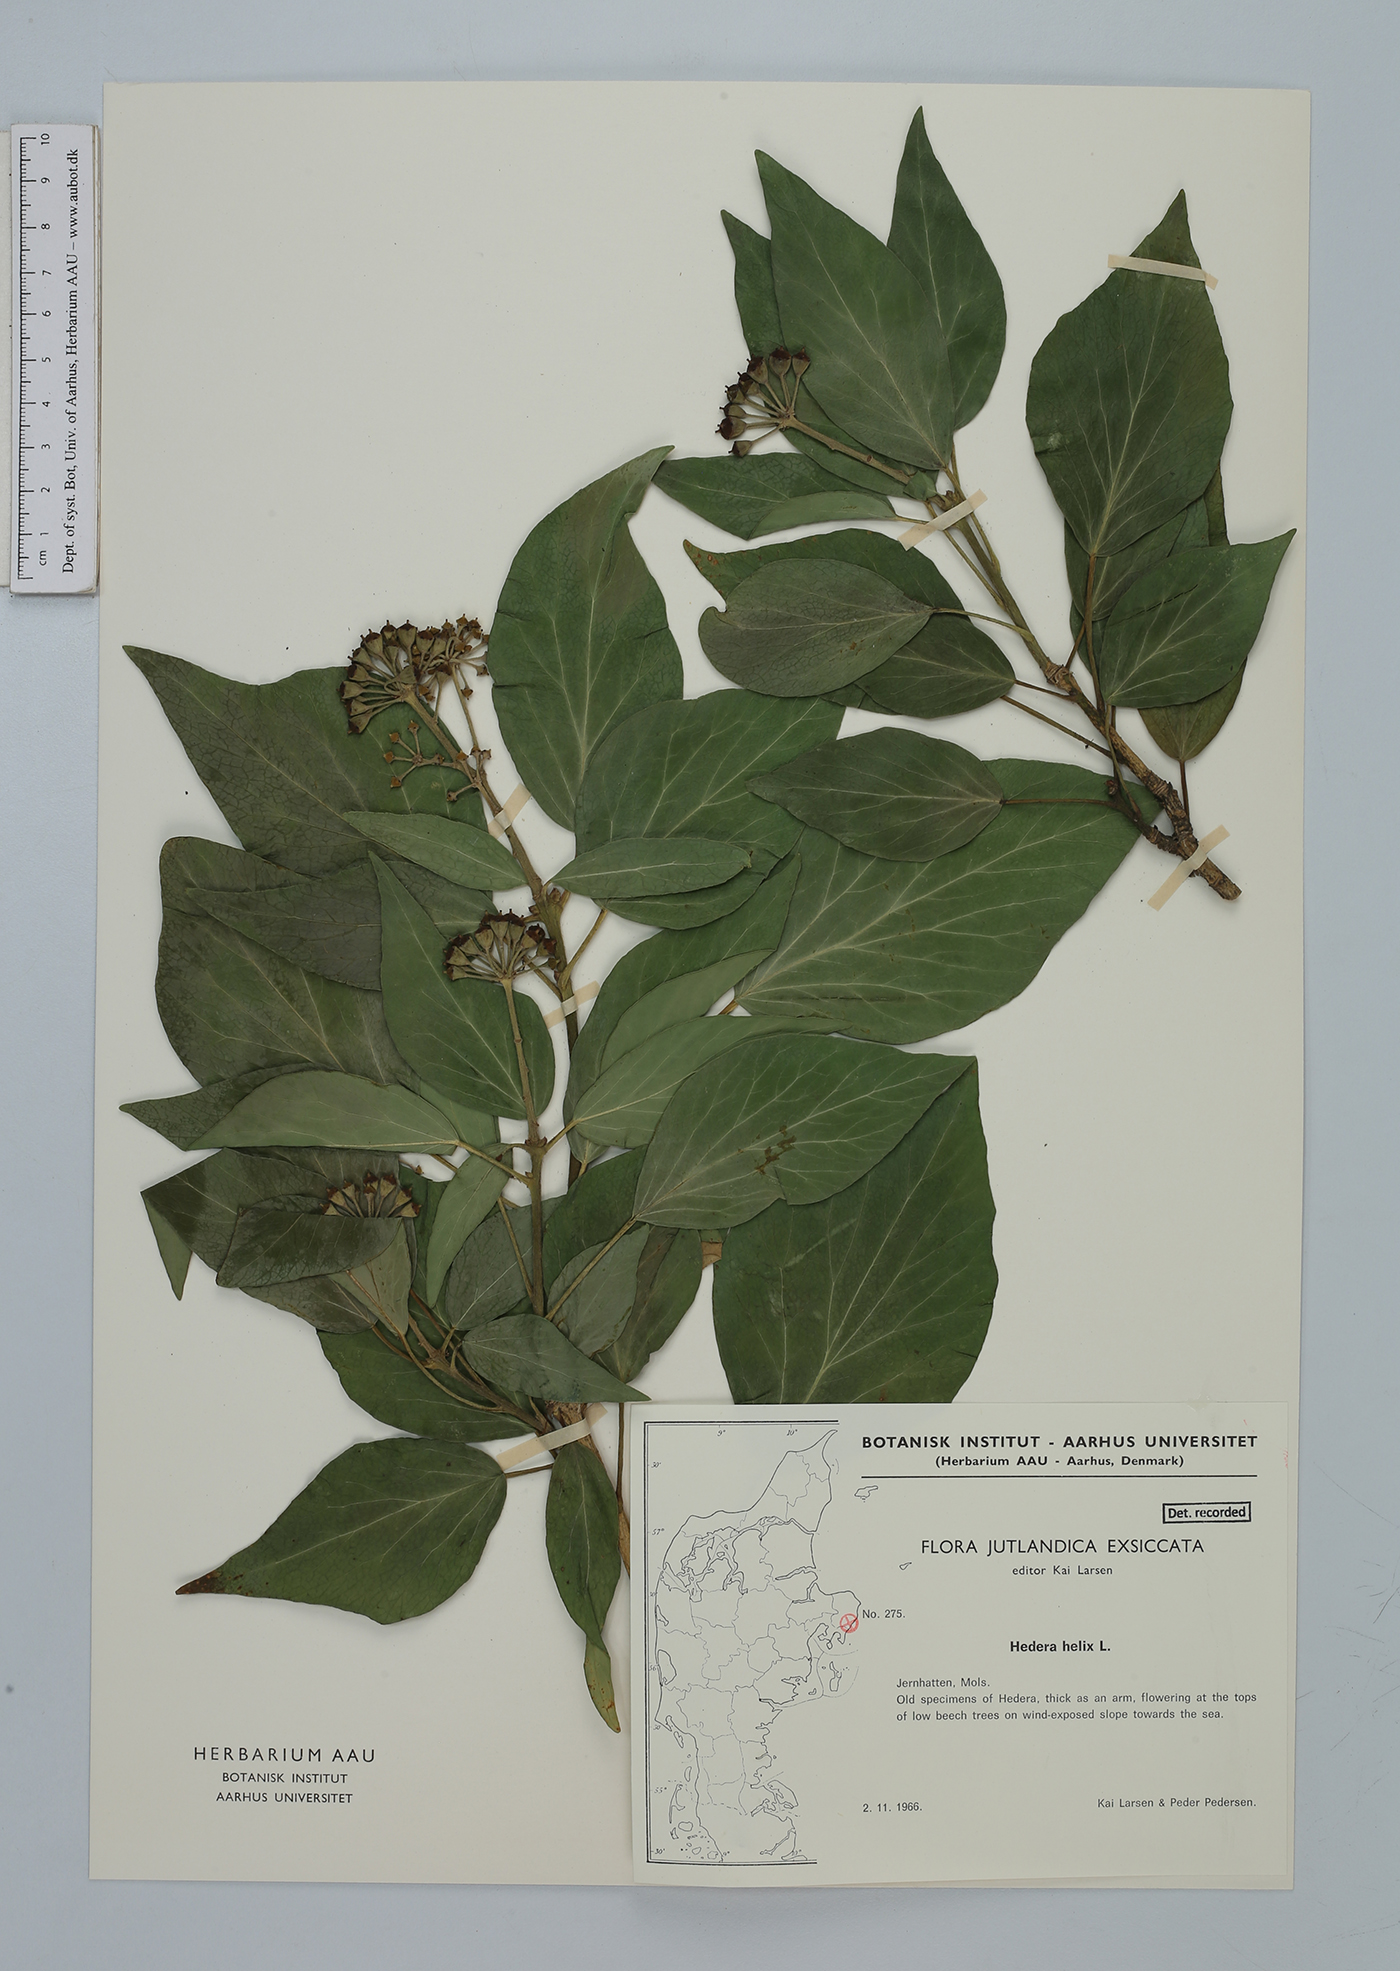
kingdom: Plantae
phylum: Tracheophyta
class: Liliopsida
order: Asparagales
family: Orchidaceae
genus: Grosourdya
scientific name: Grosourdya ciliata
